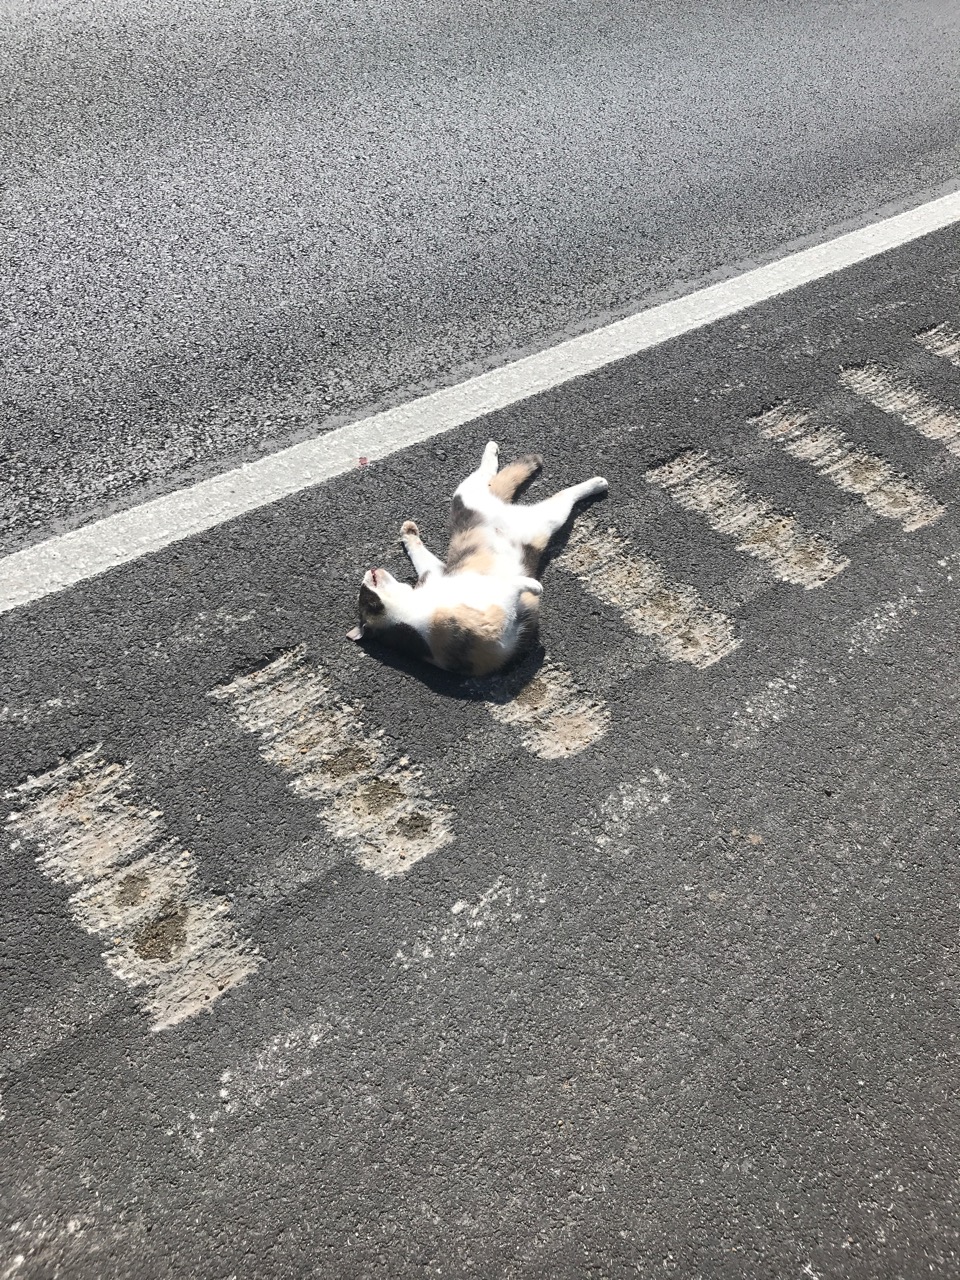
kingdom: Animalia
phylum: Chordata
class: Mammalia
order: Carnivora
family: Felidae
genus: Felis
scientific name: Felis catus
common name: Domestic cat
